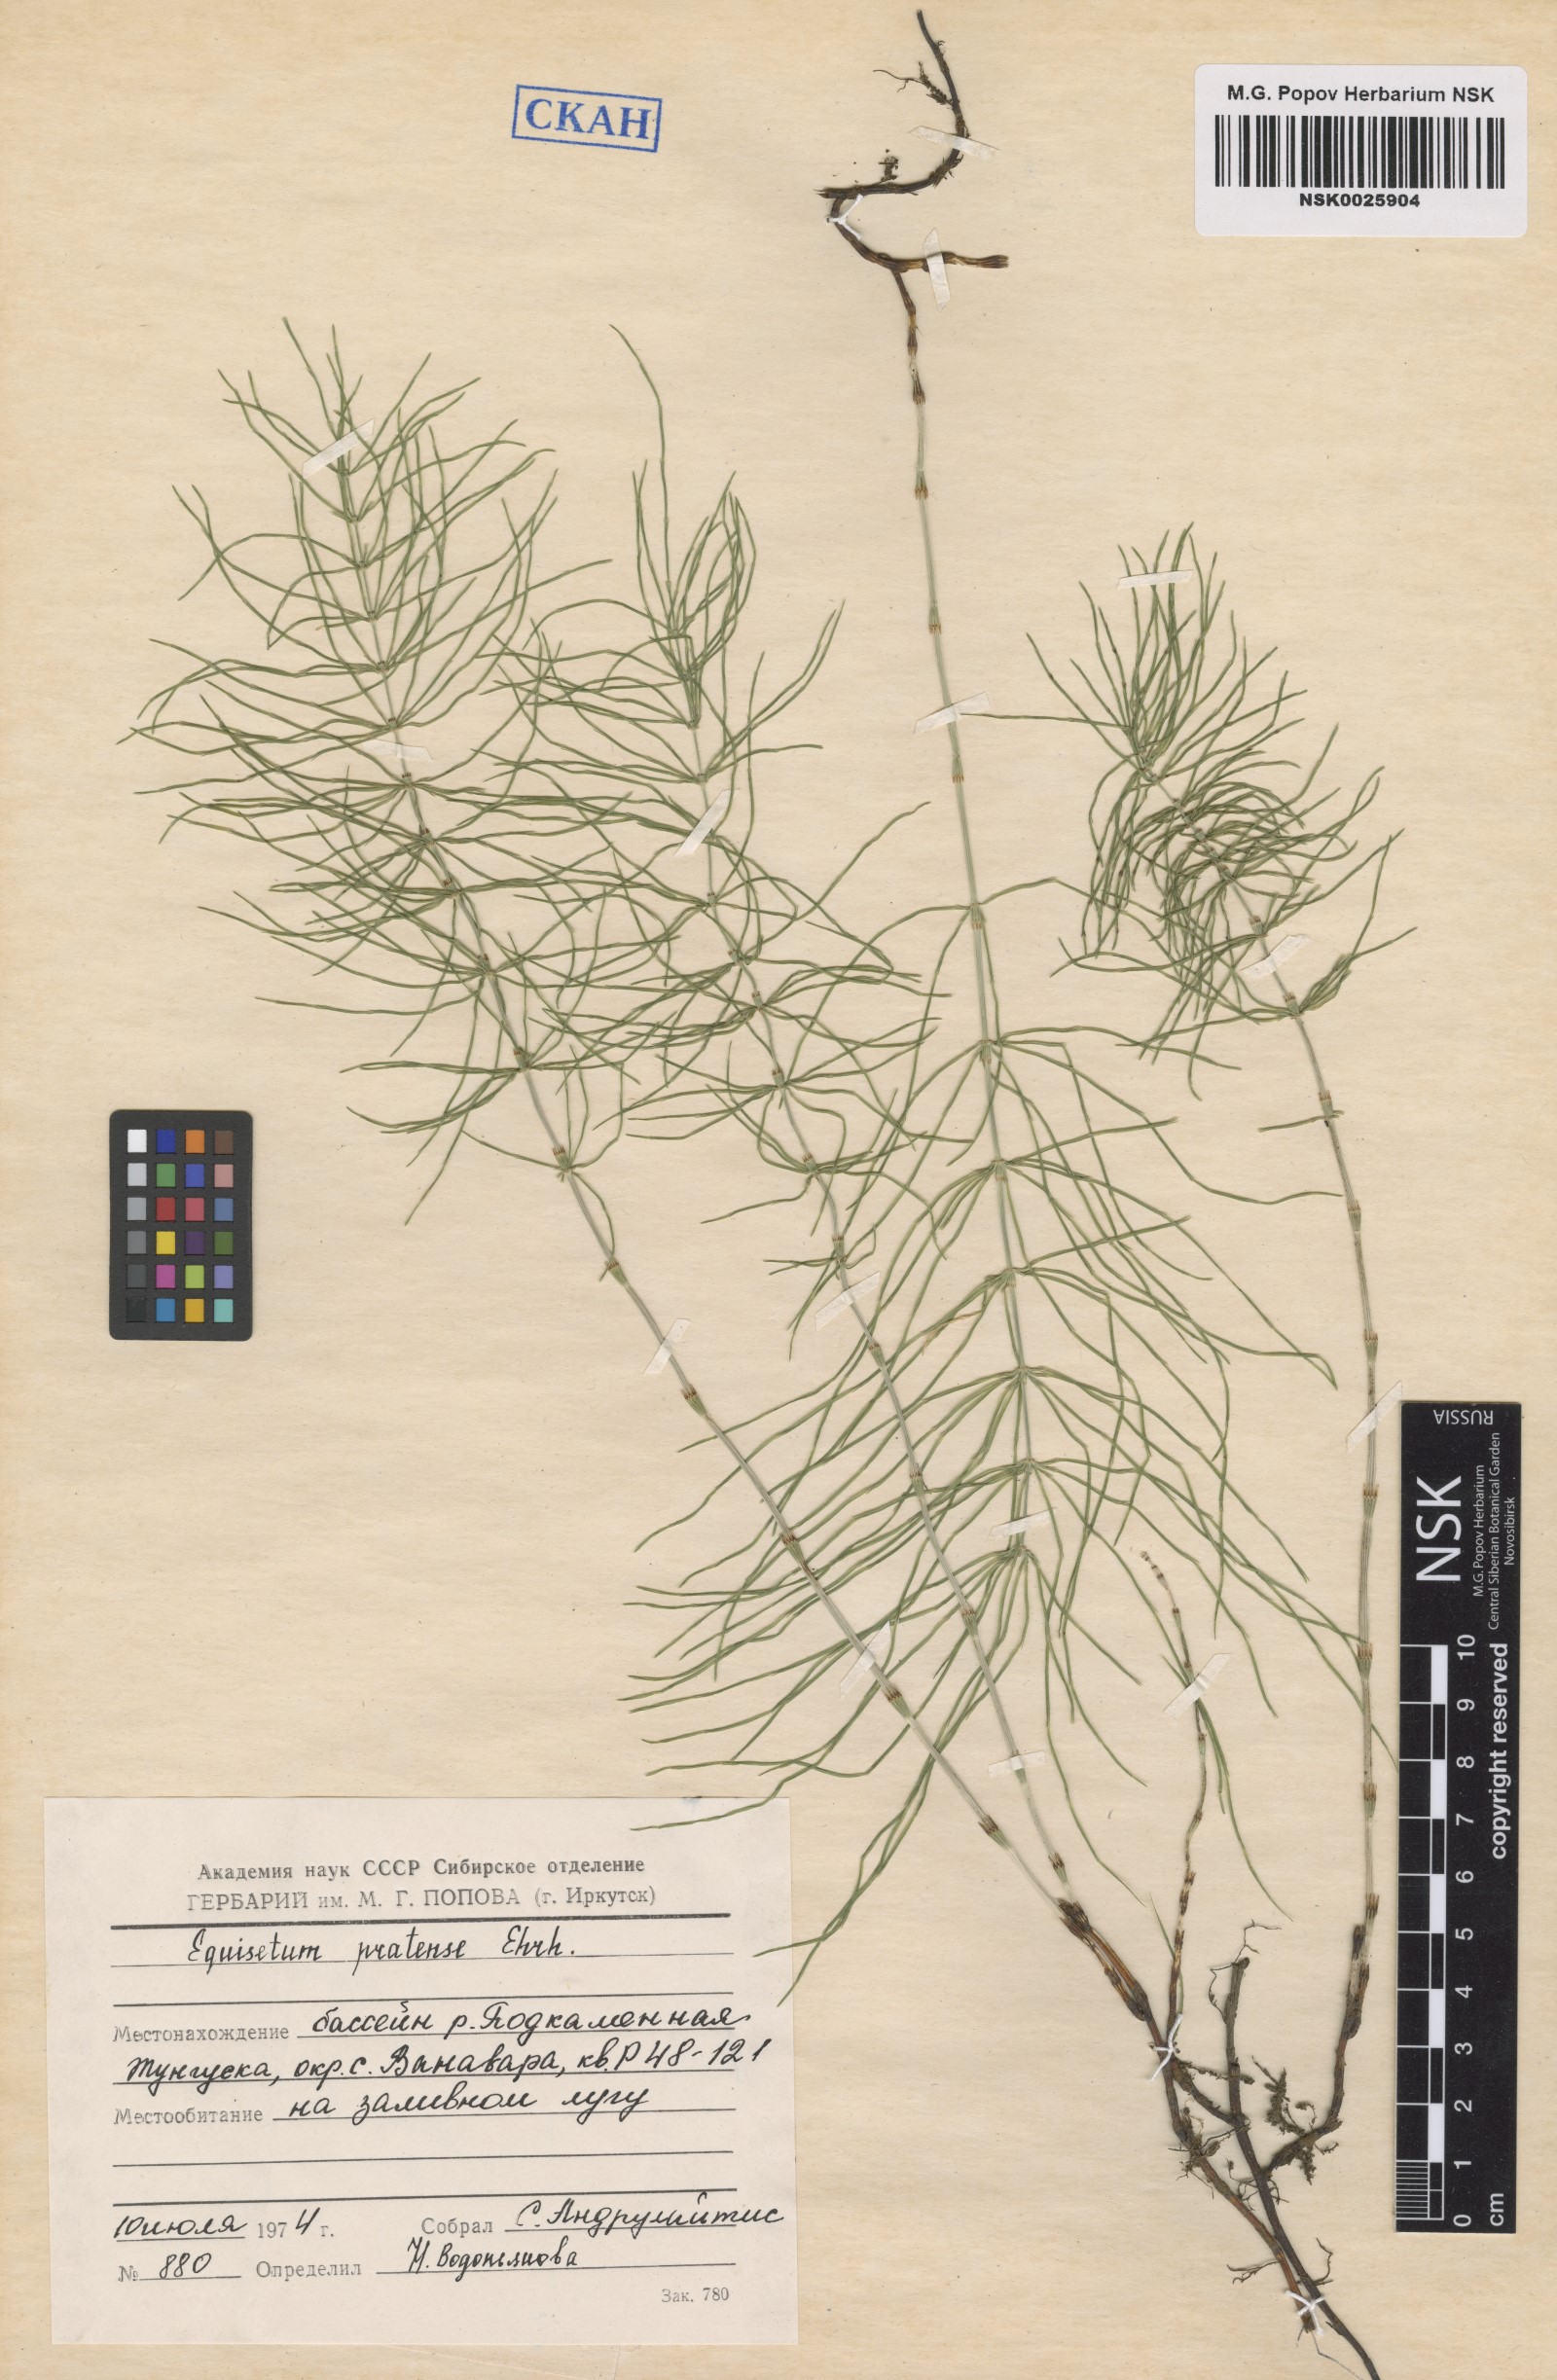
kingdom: Plantae
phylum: Tracheophyta
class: Polypodiopsida
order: Equisetales
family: Equisetaceae
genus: Equisetum
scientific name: Equisetum pratense
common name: Meadow horsetail
